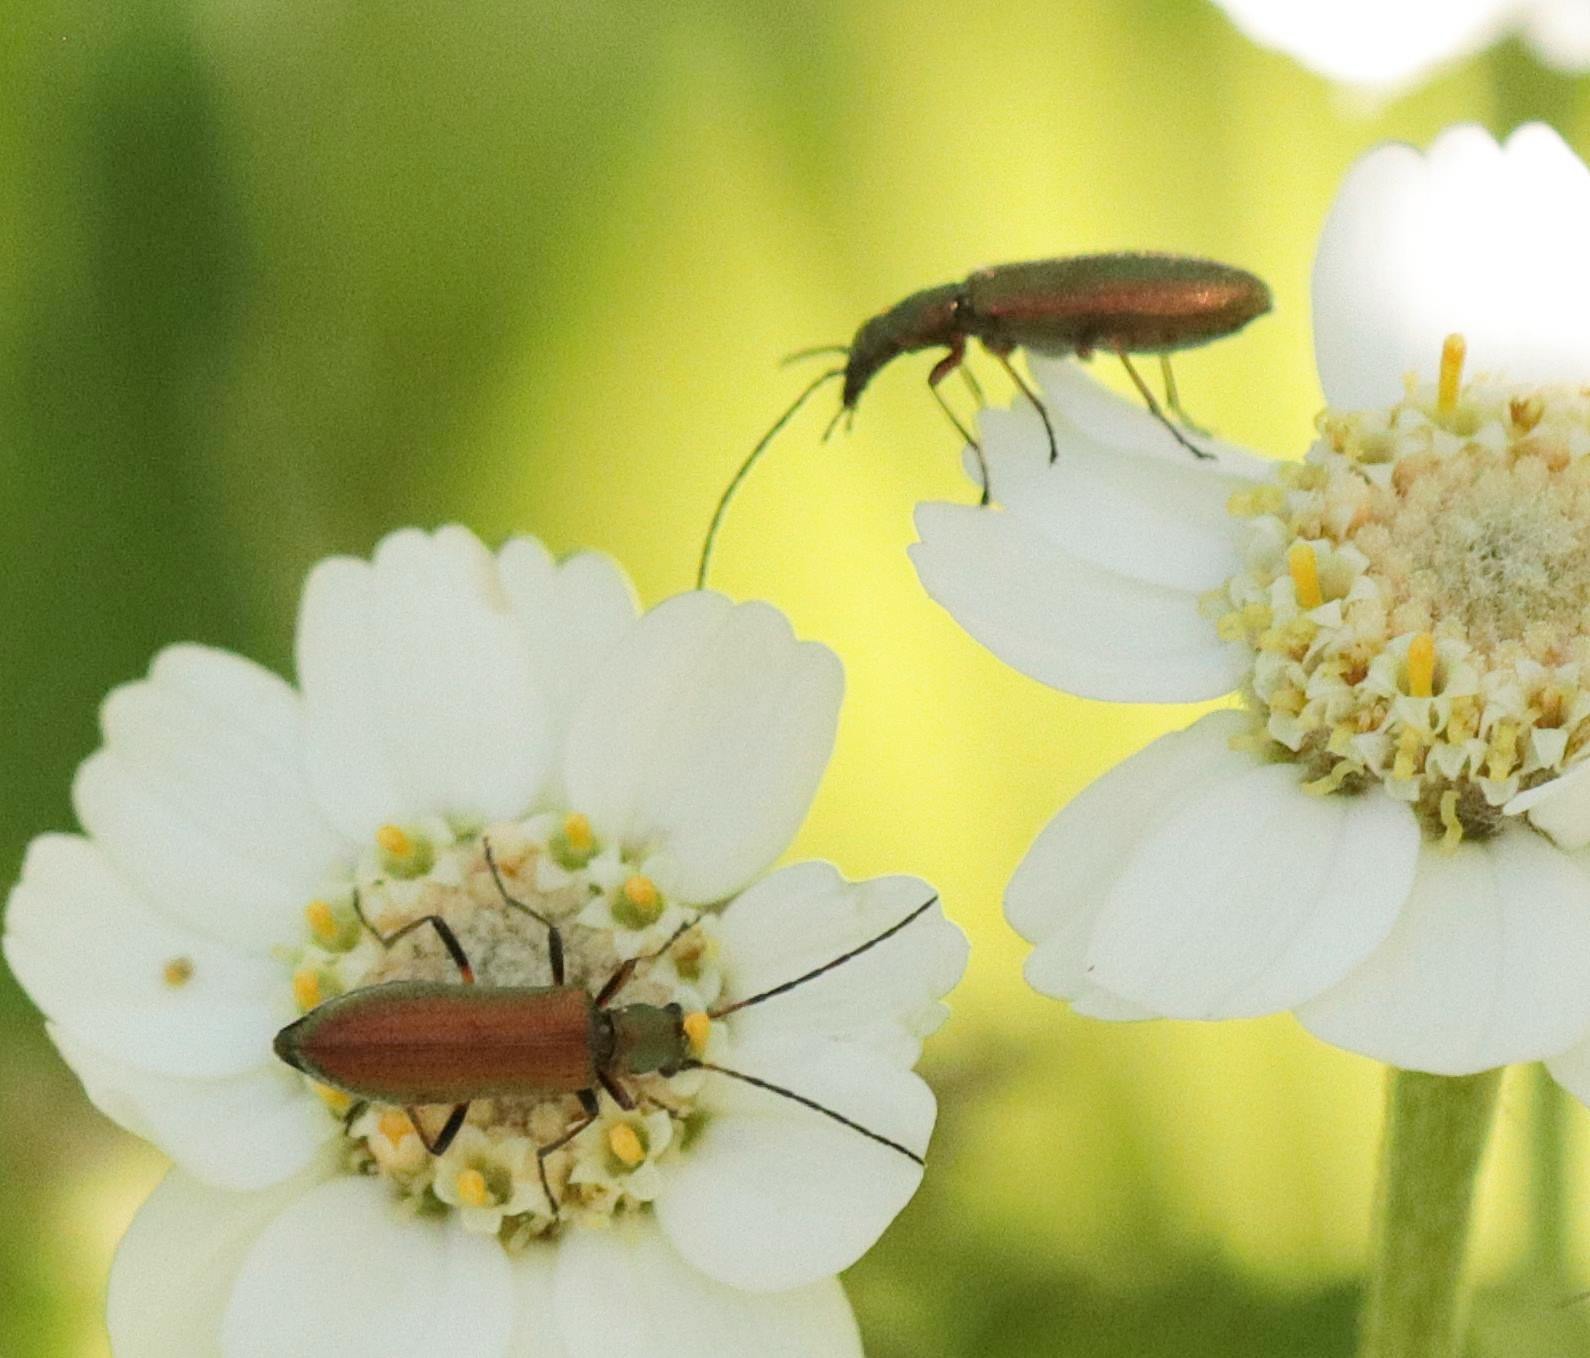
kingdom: Animalia
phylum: Arthropoda
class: Insecta
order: Coleoptera
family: Oedemeridae
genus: Chrysanthia
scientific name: Chrysanthia geniculata
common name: Grøn solbille
